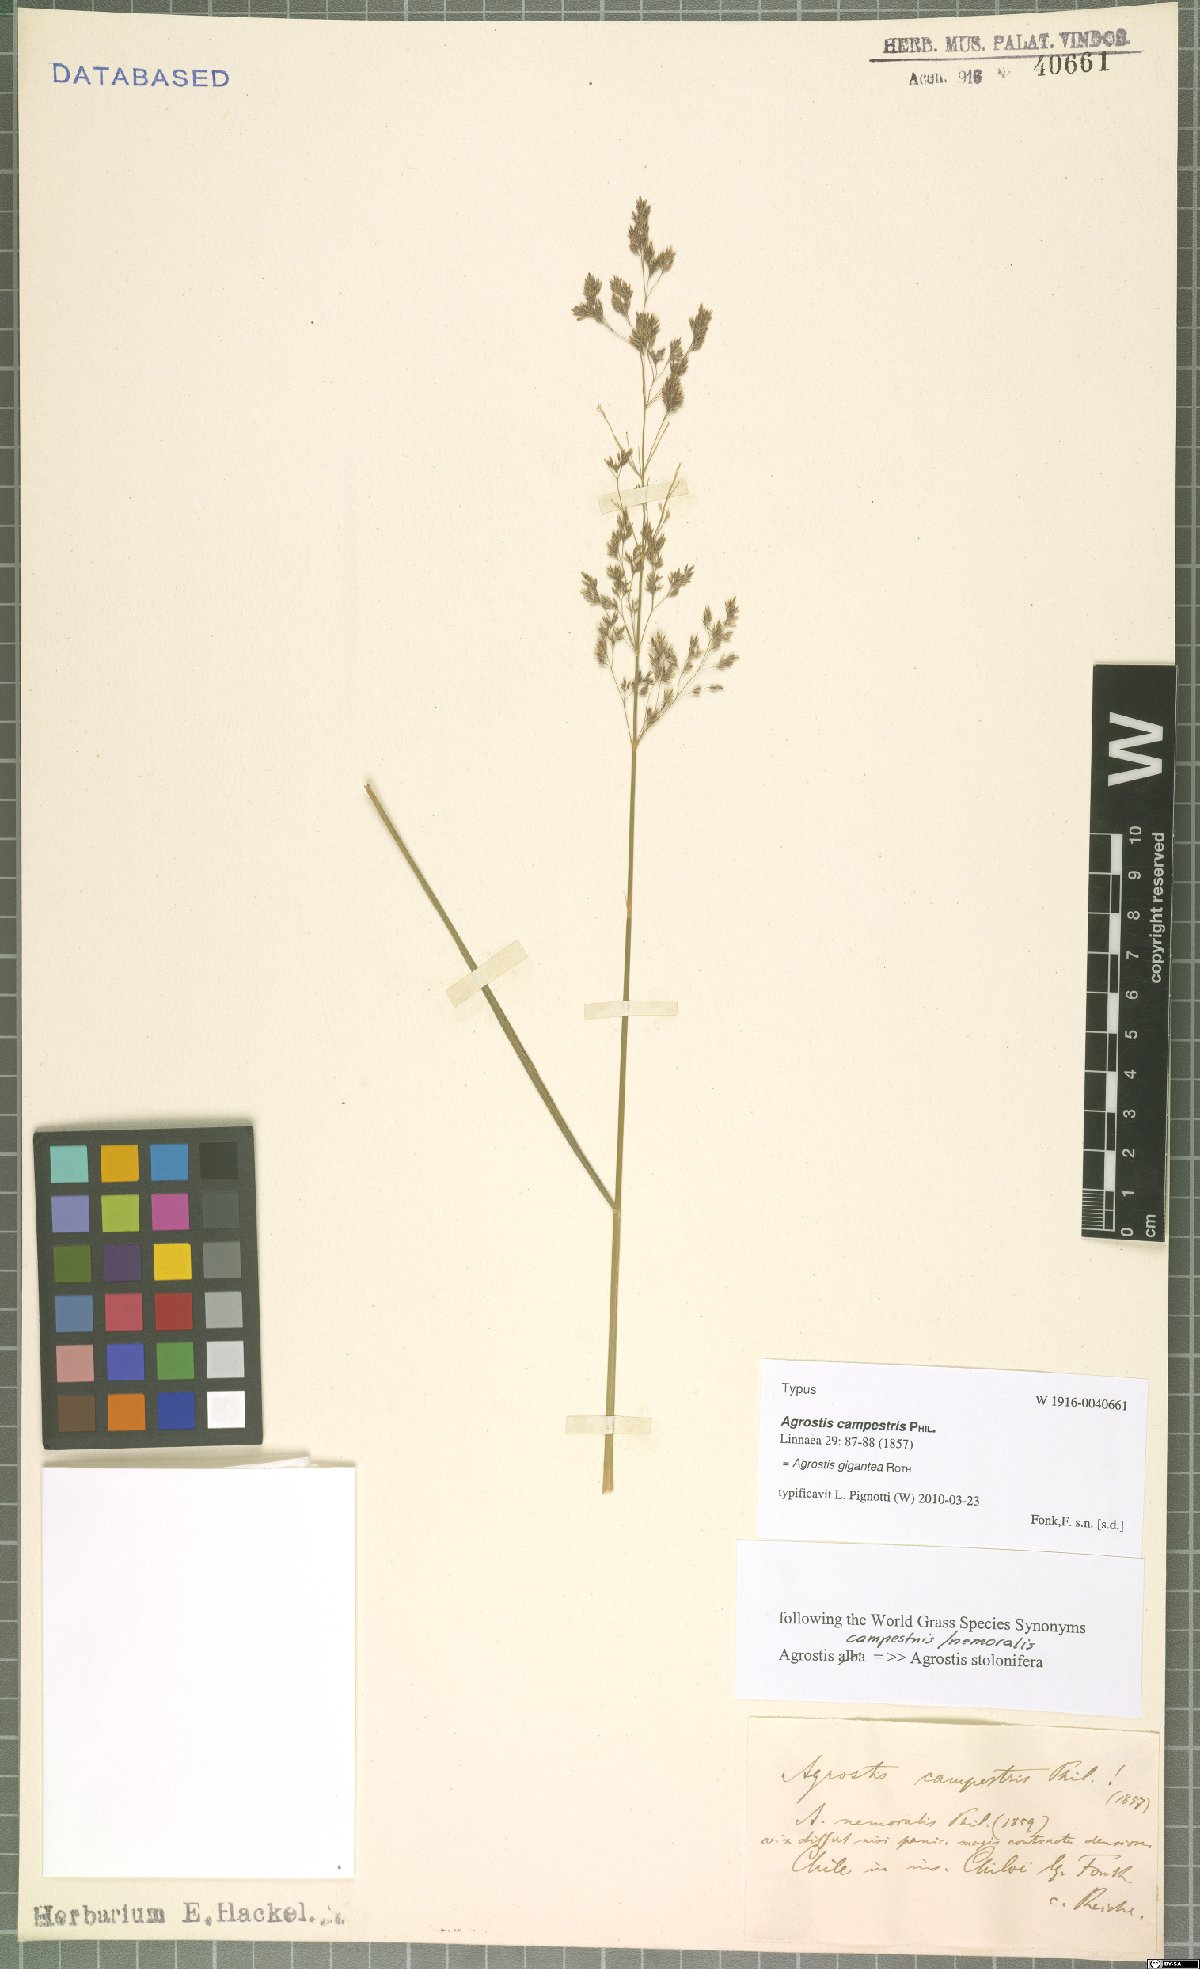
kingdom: Plantae
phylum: Tracheophyta
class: Liliopsida
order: Poales
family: Poaceae
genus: Agrostis
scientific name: Agrostis gigantea
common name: Black bent
